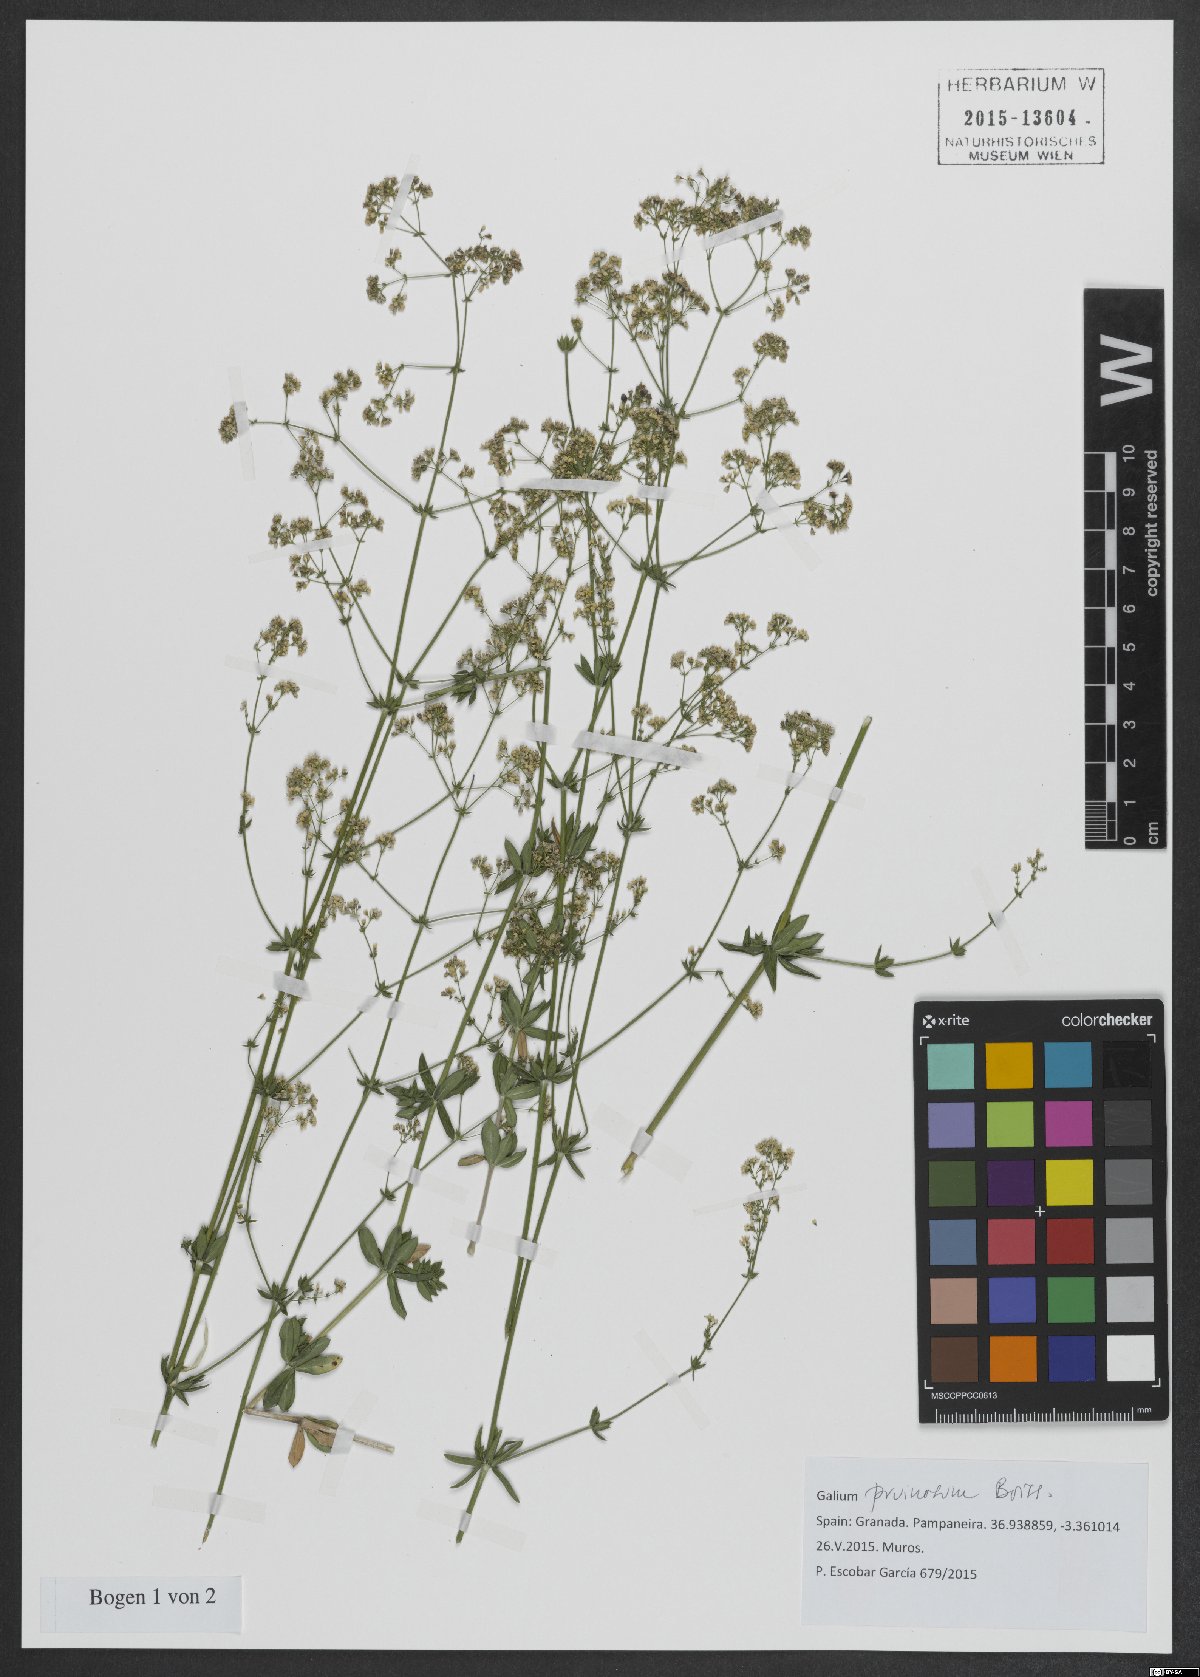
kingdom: Plantae
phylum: Tracheophyta
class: Magnoliopsida
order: Gentianales
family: Rubiaceae
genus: Galium
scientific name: Galium pruinosum
